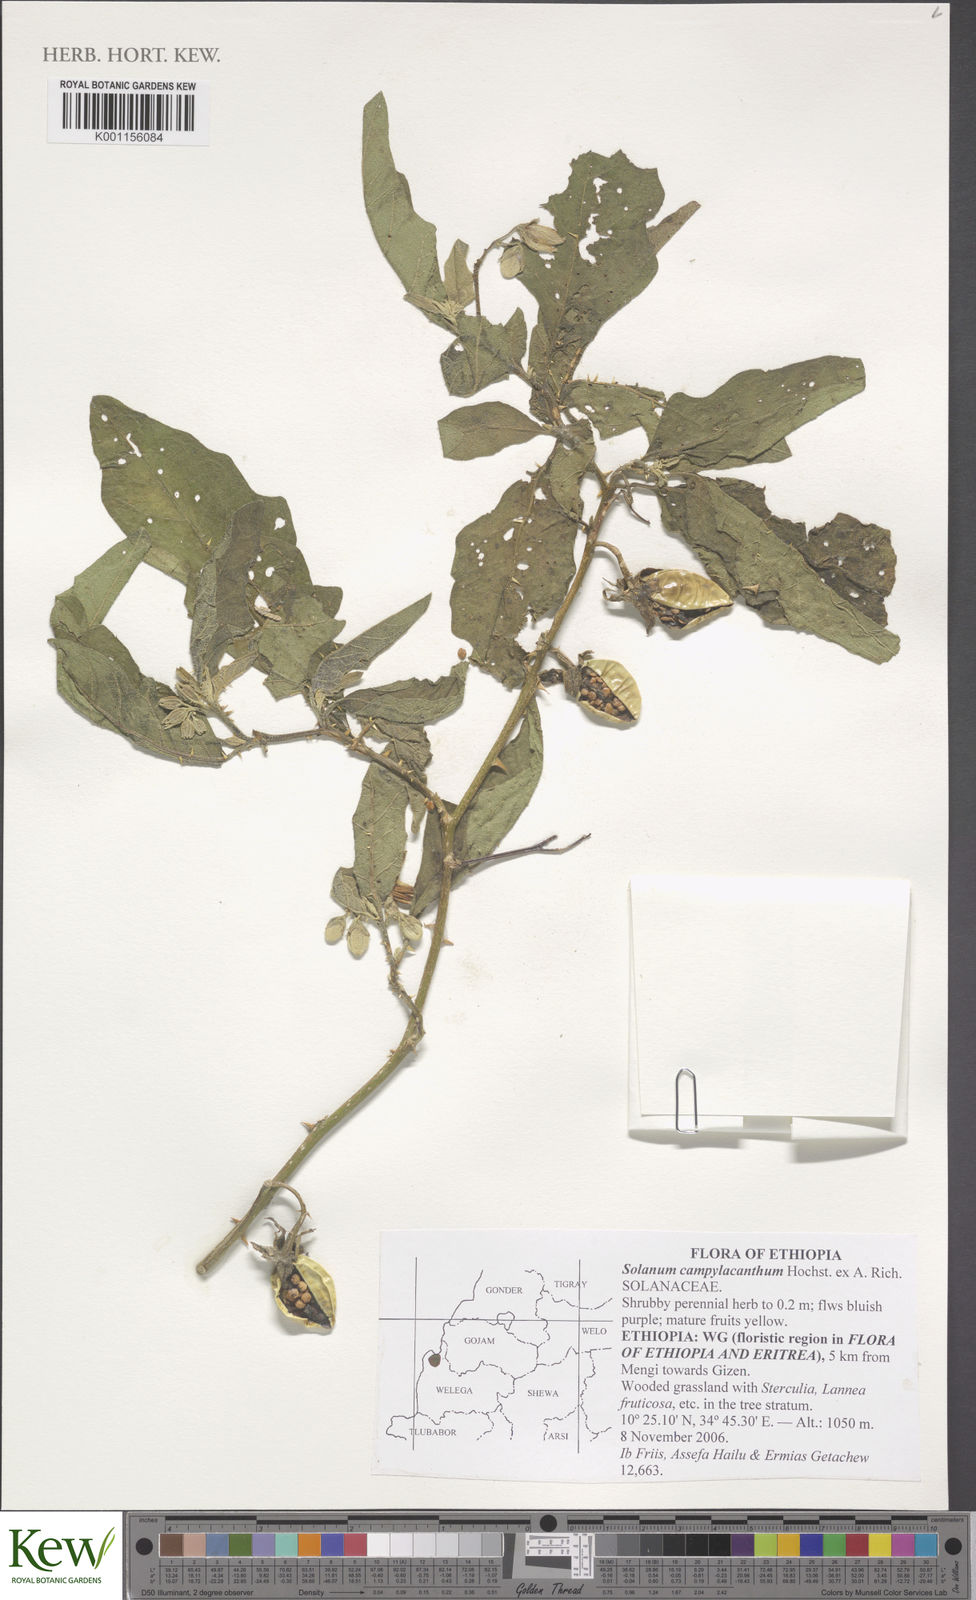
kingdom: Plantae
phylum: Tracheophyta
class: Magnoliopsida
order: Solanales
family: Solanaceae
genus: Solanum
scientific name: Solanum campylacanthum
